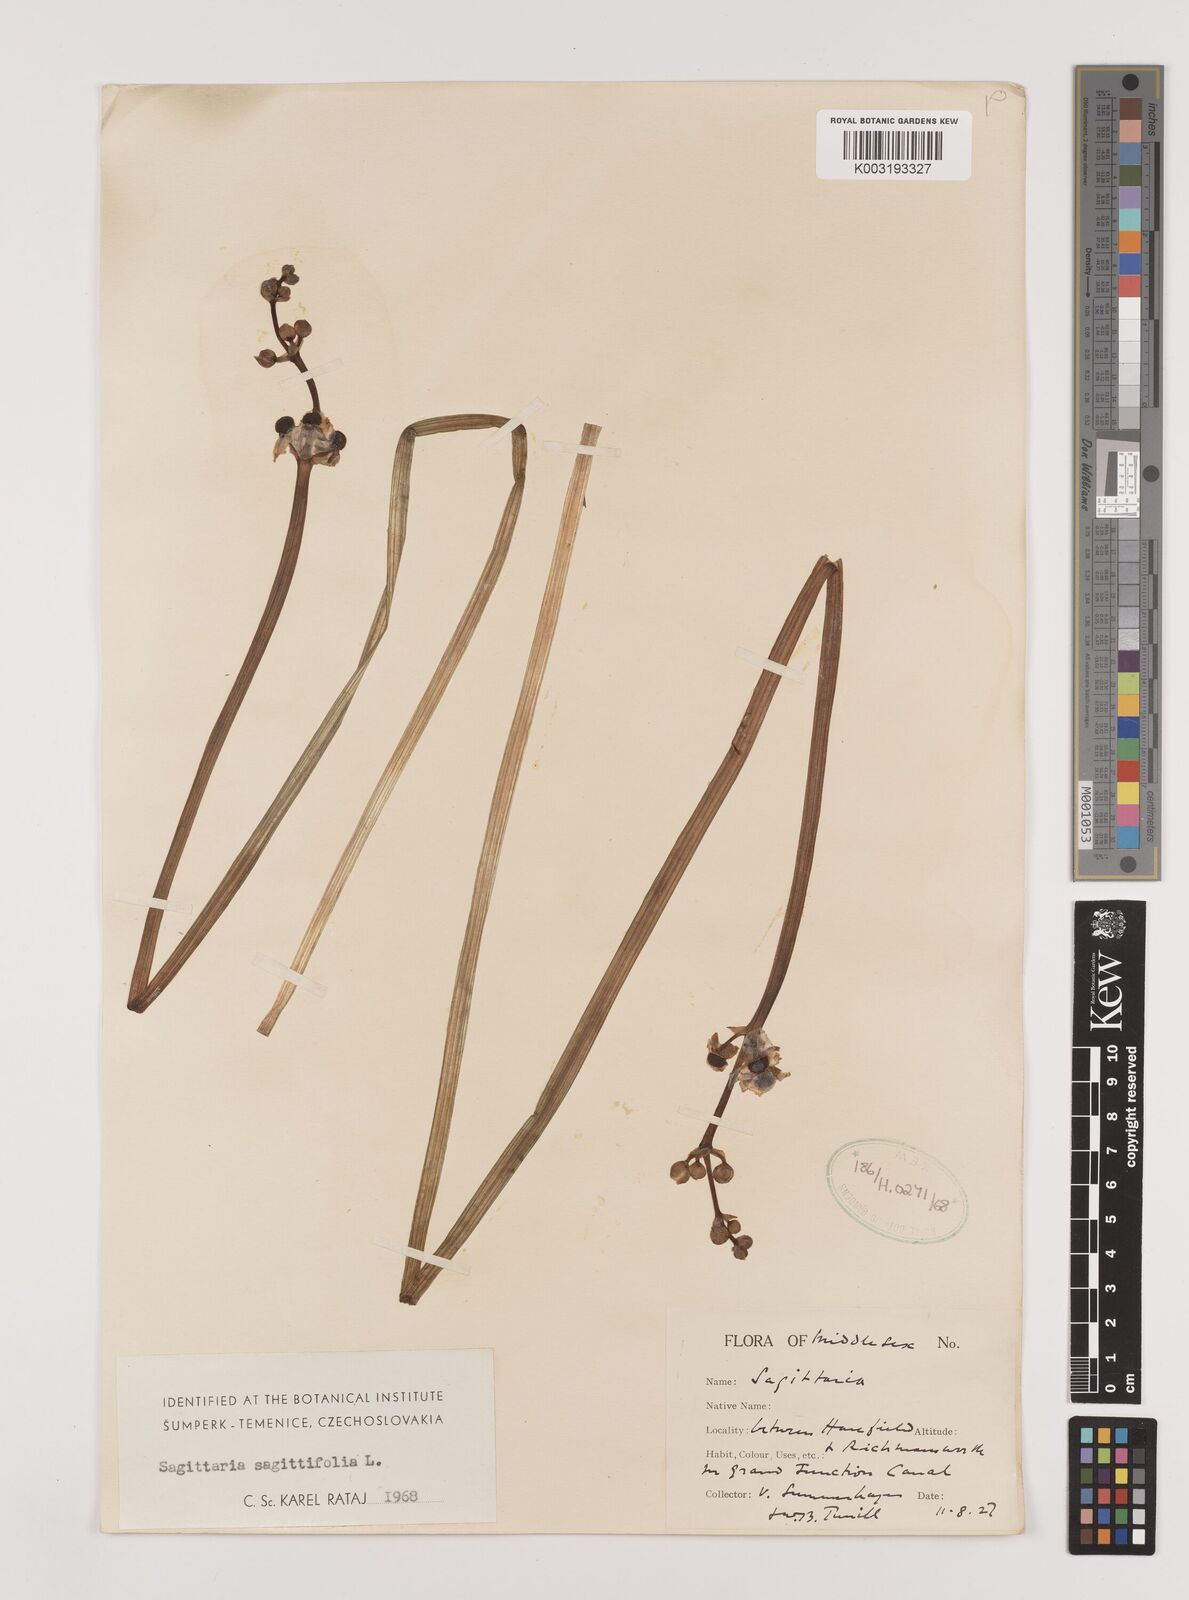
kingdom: Plantae
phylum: Tracheophyta
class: Liliopsida
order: Alismatales
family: Alismataceae
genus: Sagittaria
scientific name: Sagittaria sagittifolia
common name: Arrowhead
